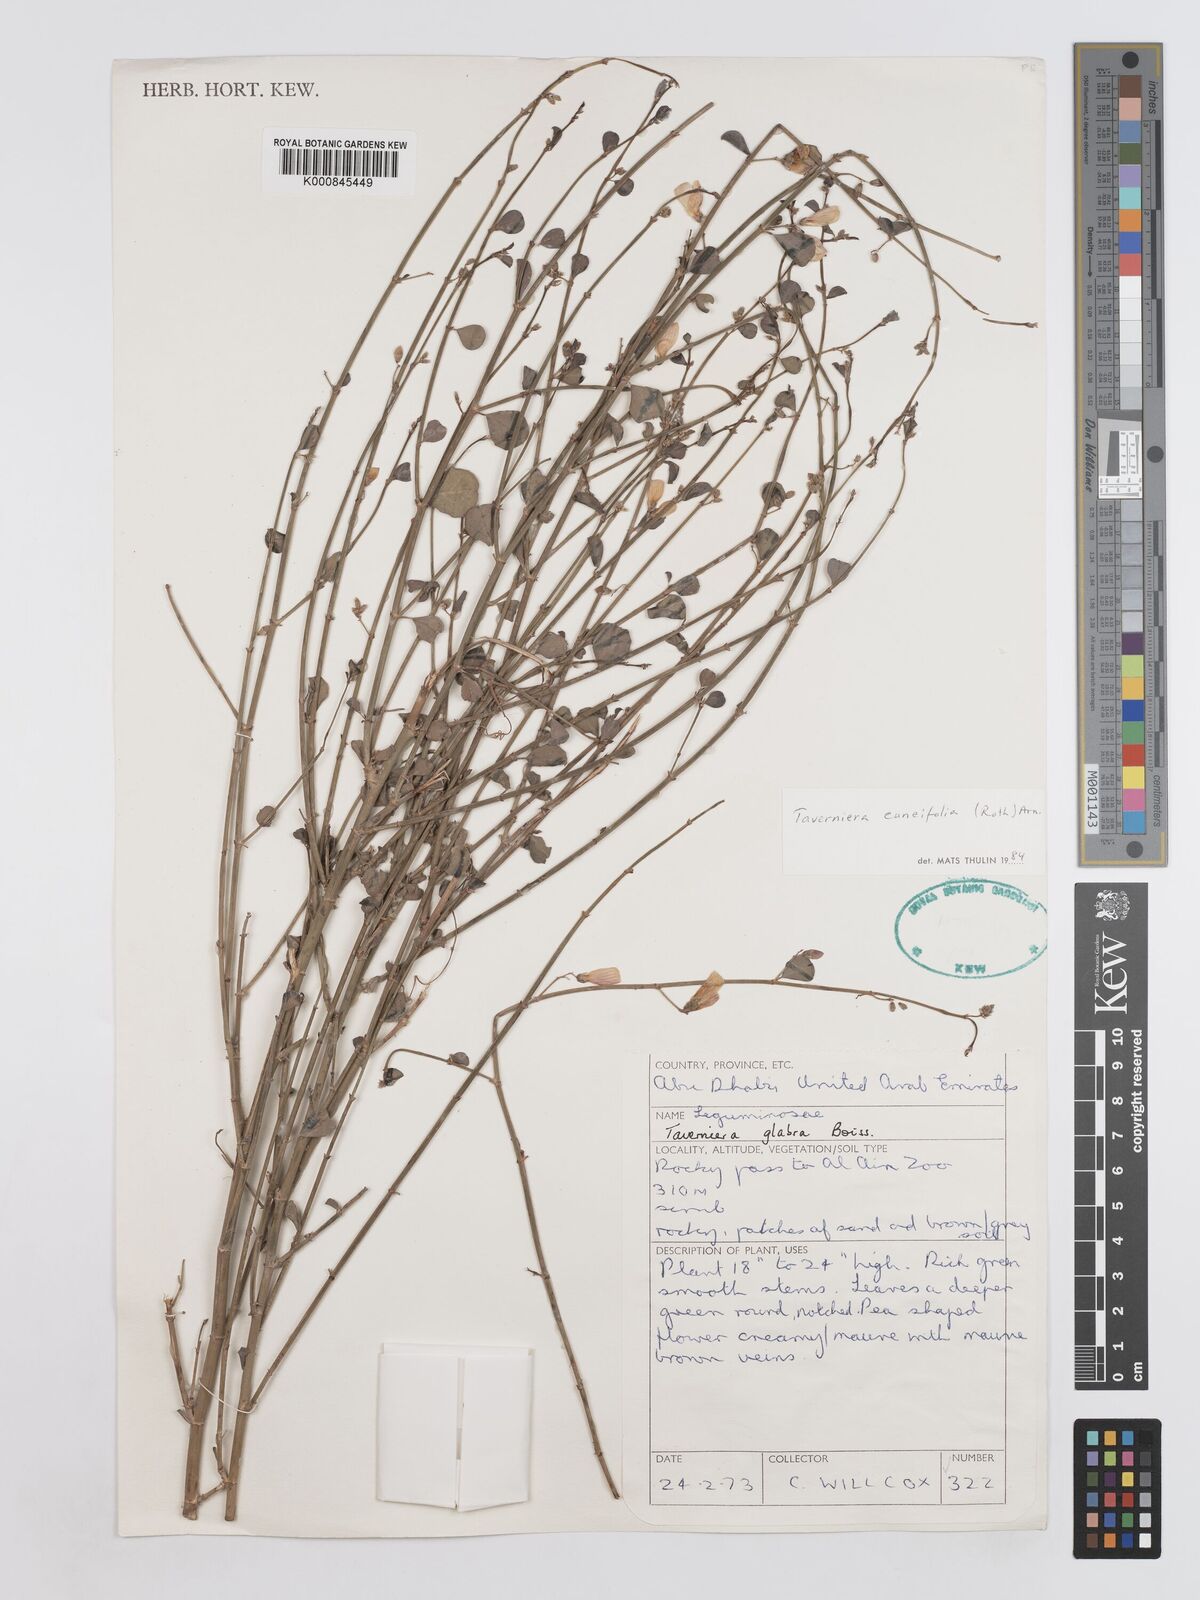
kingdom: Plantae
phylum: Tracheophyta
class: Magnoliopsida
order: Fabales
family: Fabaceae
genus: Taverniera
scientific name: Taverniera
